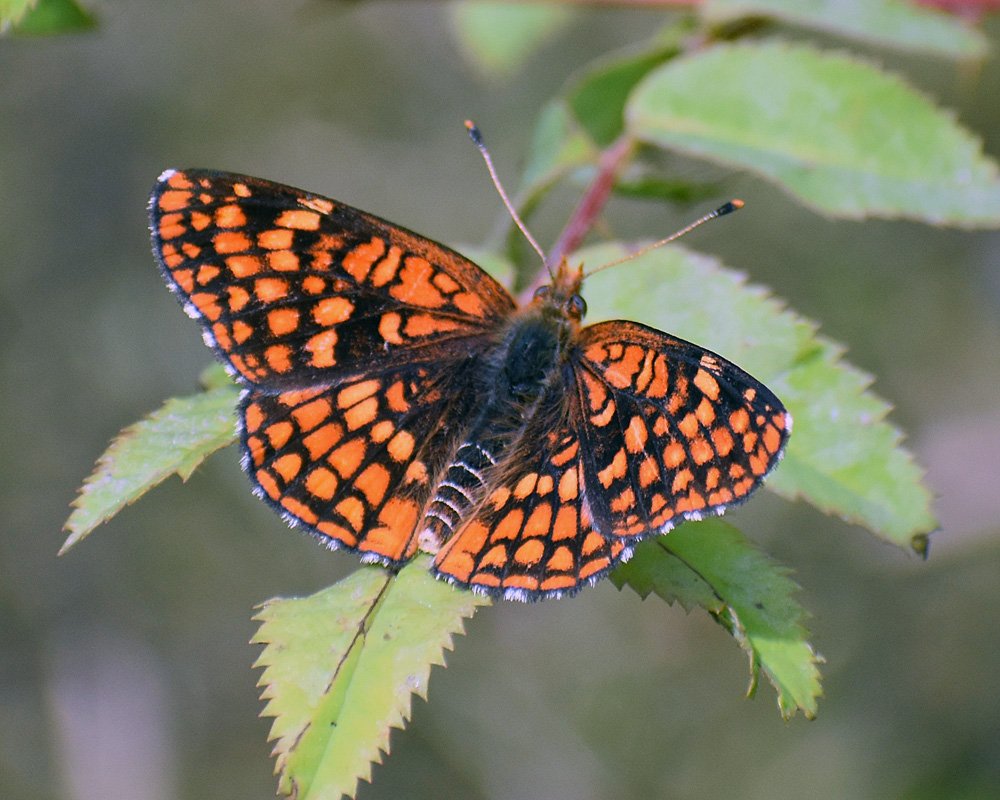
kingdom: Animalia
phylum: Arthropoda
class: Insecta
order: Lepidoptera
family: Nymphalidae
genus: Chlosyne
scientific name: Chlosyne palla
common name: Northern Checkerspot
